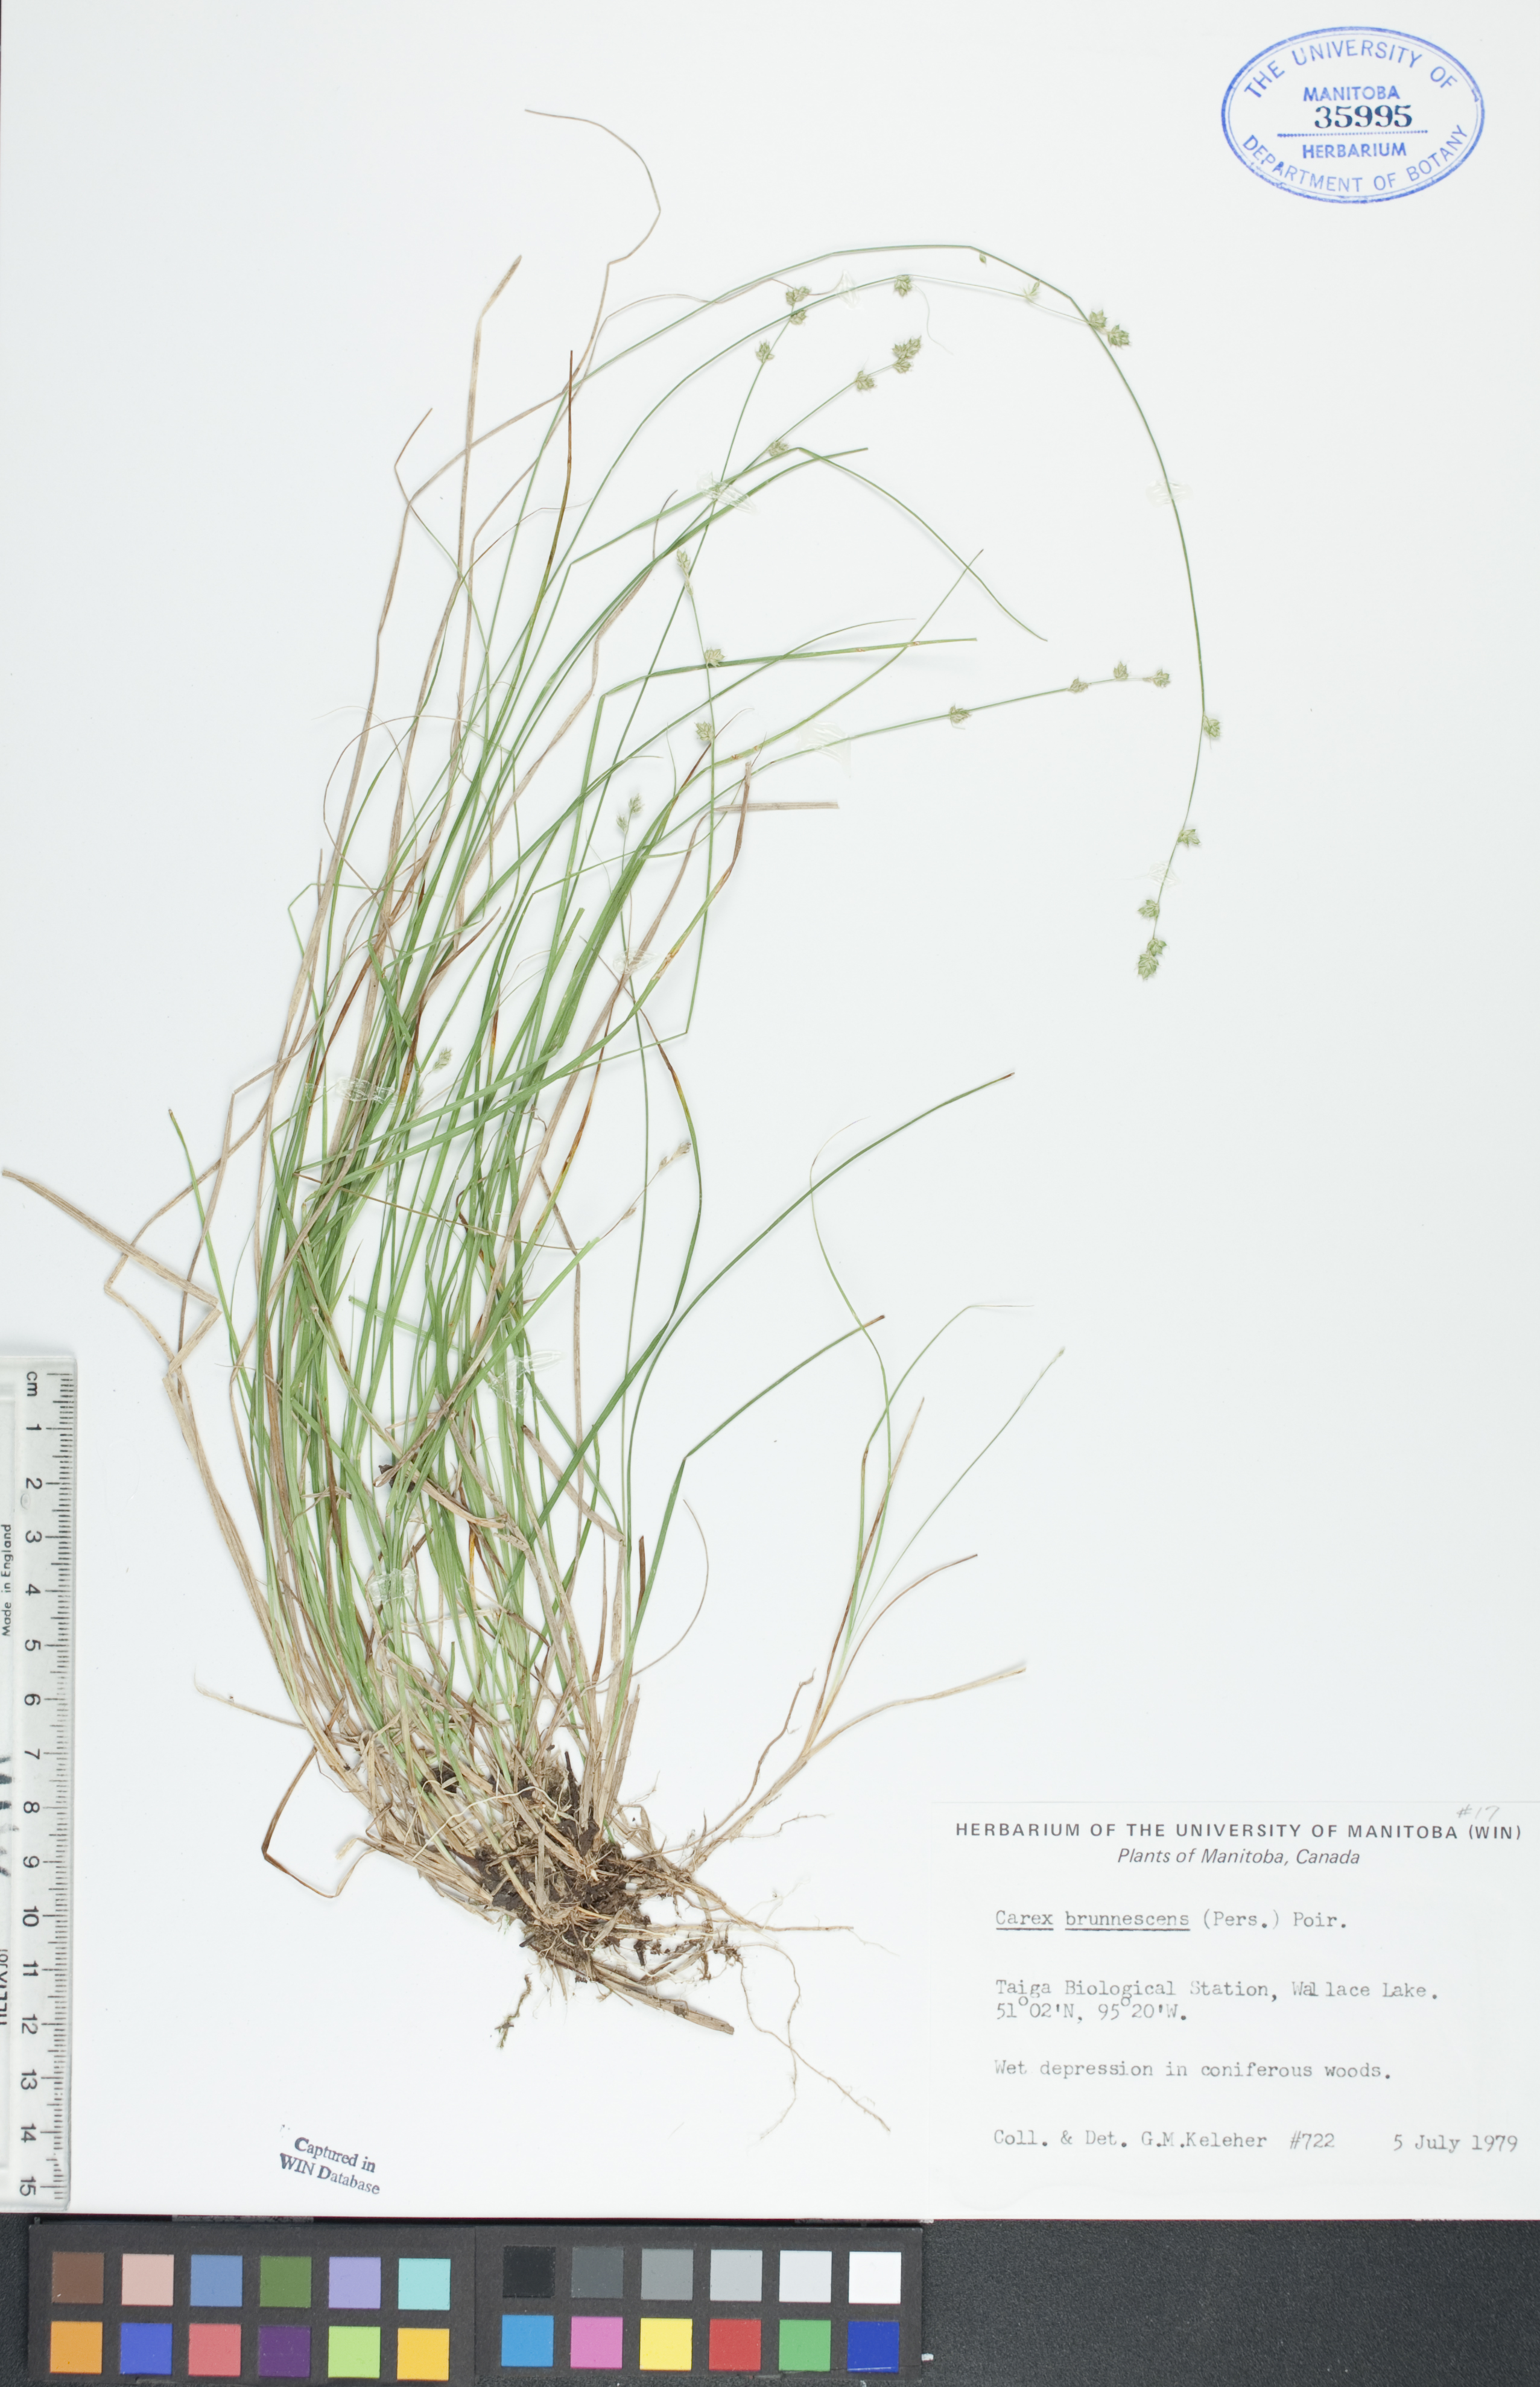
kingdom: Plantae
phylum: Tracheophyta
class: Liliopsida
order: Poales
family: Cyperaceae
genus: Carex
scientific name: Carex brunnescens
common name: Brown sedge
